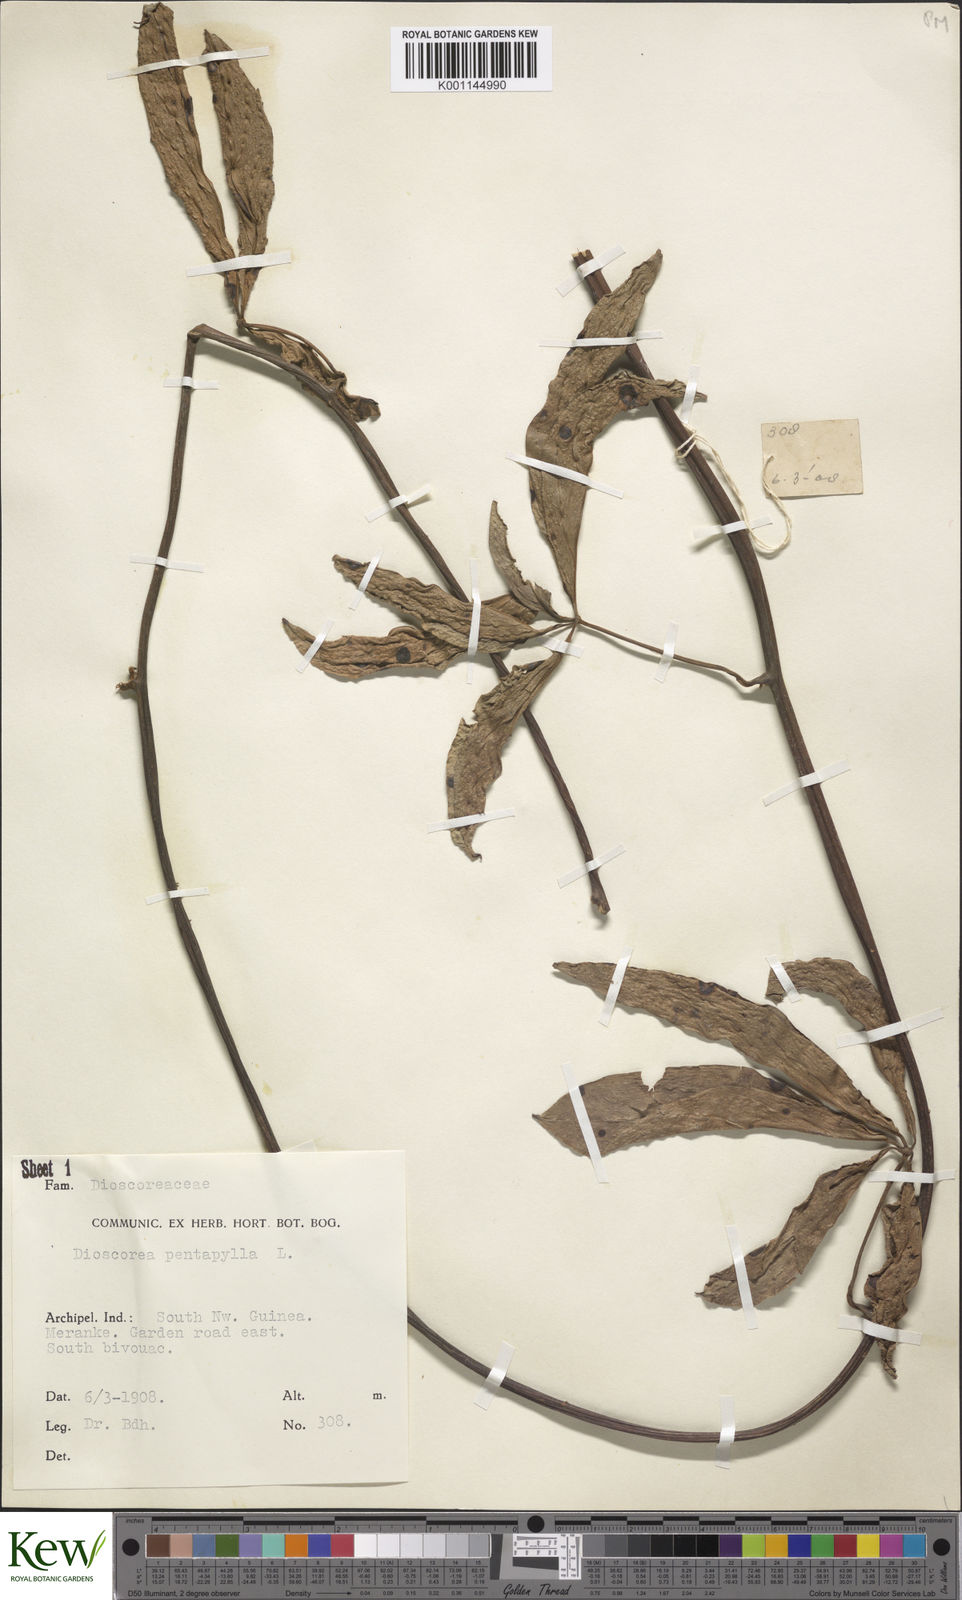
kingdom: Plantae
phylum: Tracheophyta
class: Liliopsida
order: Dioscoreales
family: Dioscoreaceae
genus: Dioscorea
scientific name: Dioscorea pentaphylla
